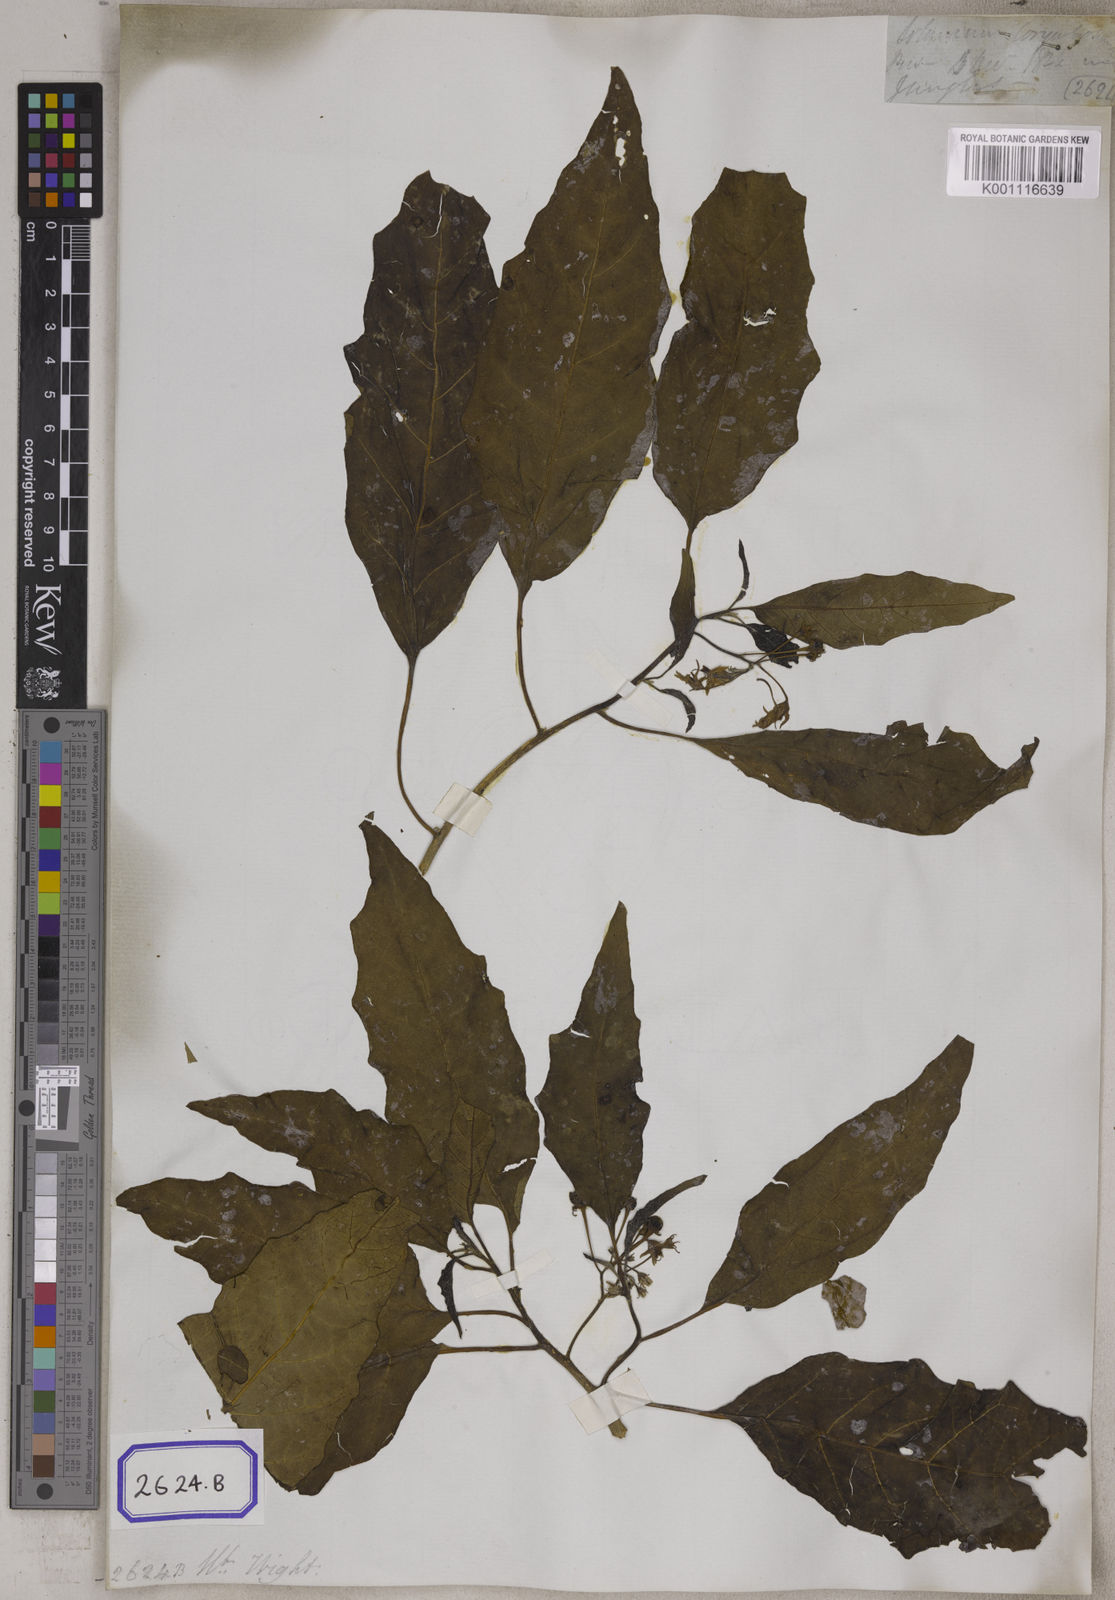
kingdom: Plantae
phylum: Tracheophyta
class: Magnoliopsida
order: Solanales
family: Solanaceae
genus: Solanum
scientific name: Solanum giganteum
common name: Healing-leaf-tree
